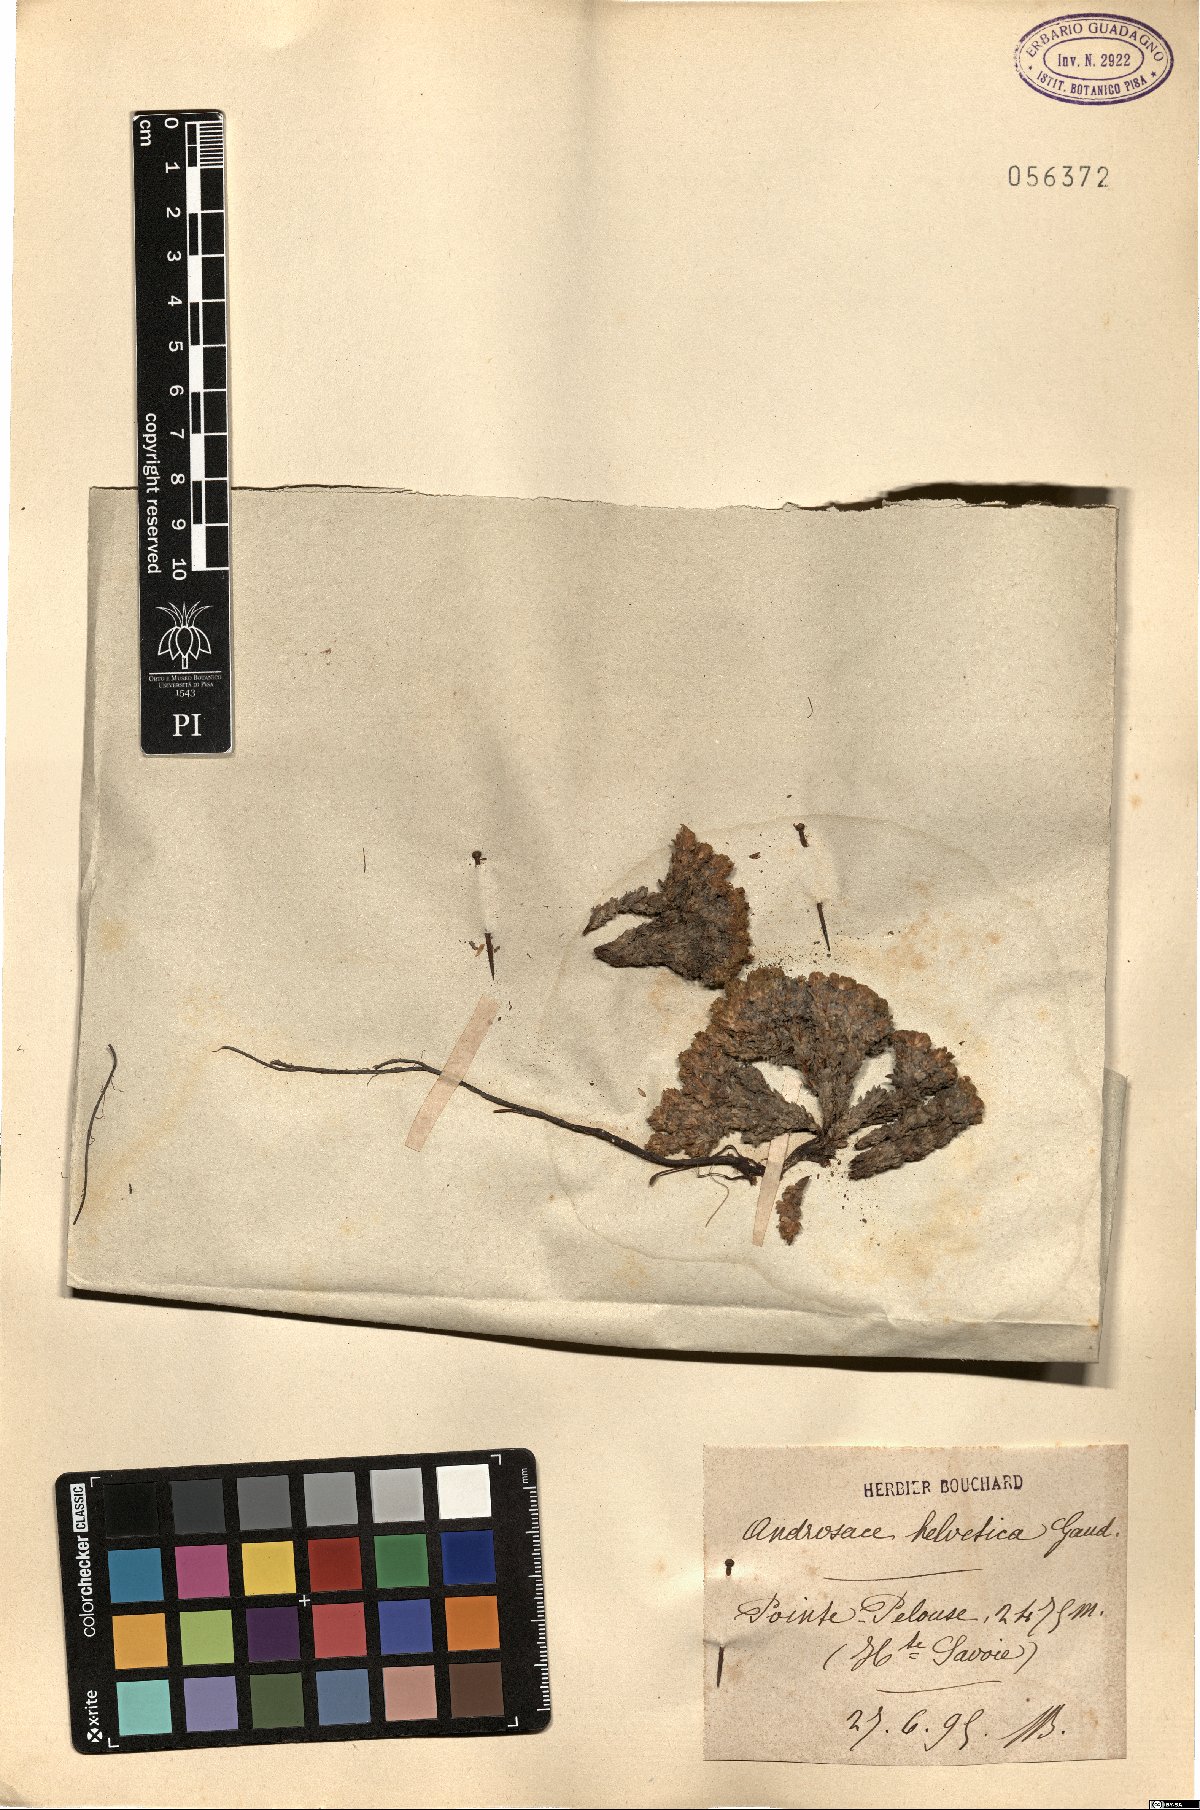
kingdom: Plantae
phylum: Tracheophyta
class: Magnoliopsida
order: Ericales
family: Primulaceae
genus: Androsace
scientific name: Androsace helvetica
